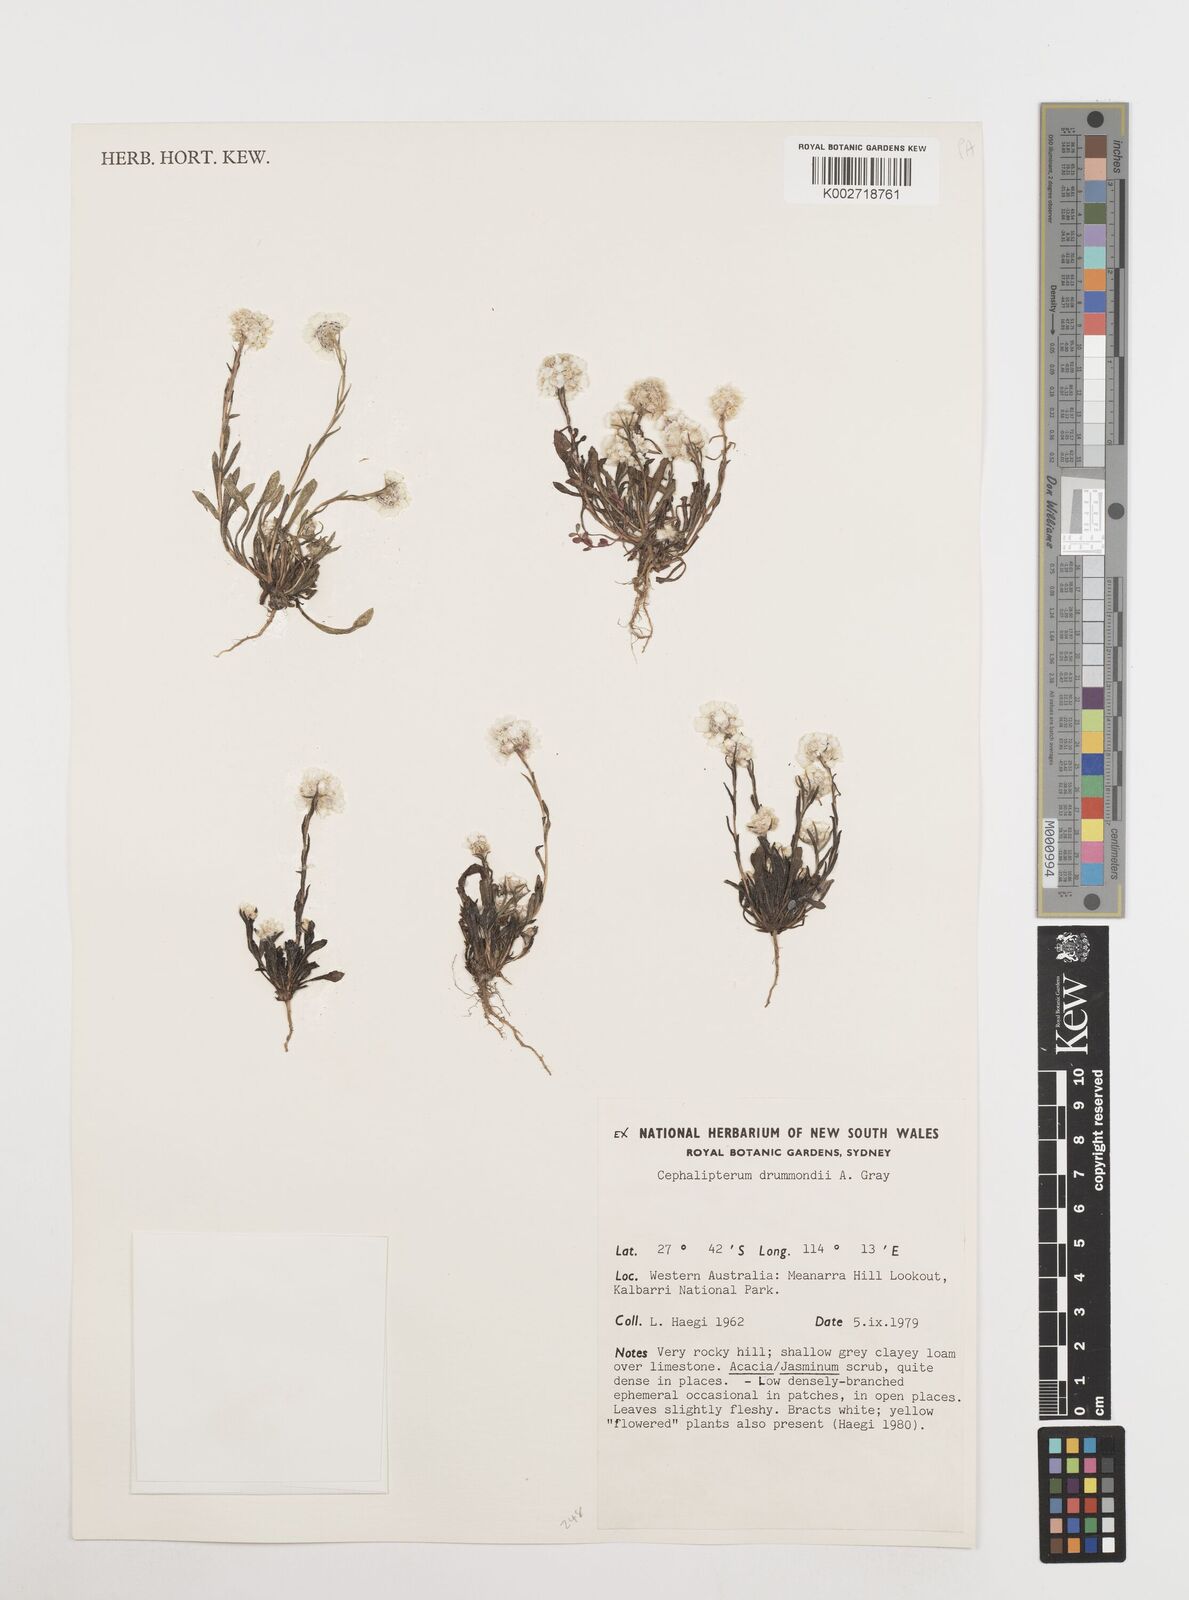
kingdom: Plantae
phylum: Tracheophyta
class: Magnoliopsida
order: Asterales
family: Asteraceae
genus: Cephalipterum
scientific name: Cephalipterum drummondii
